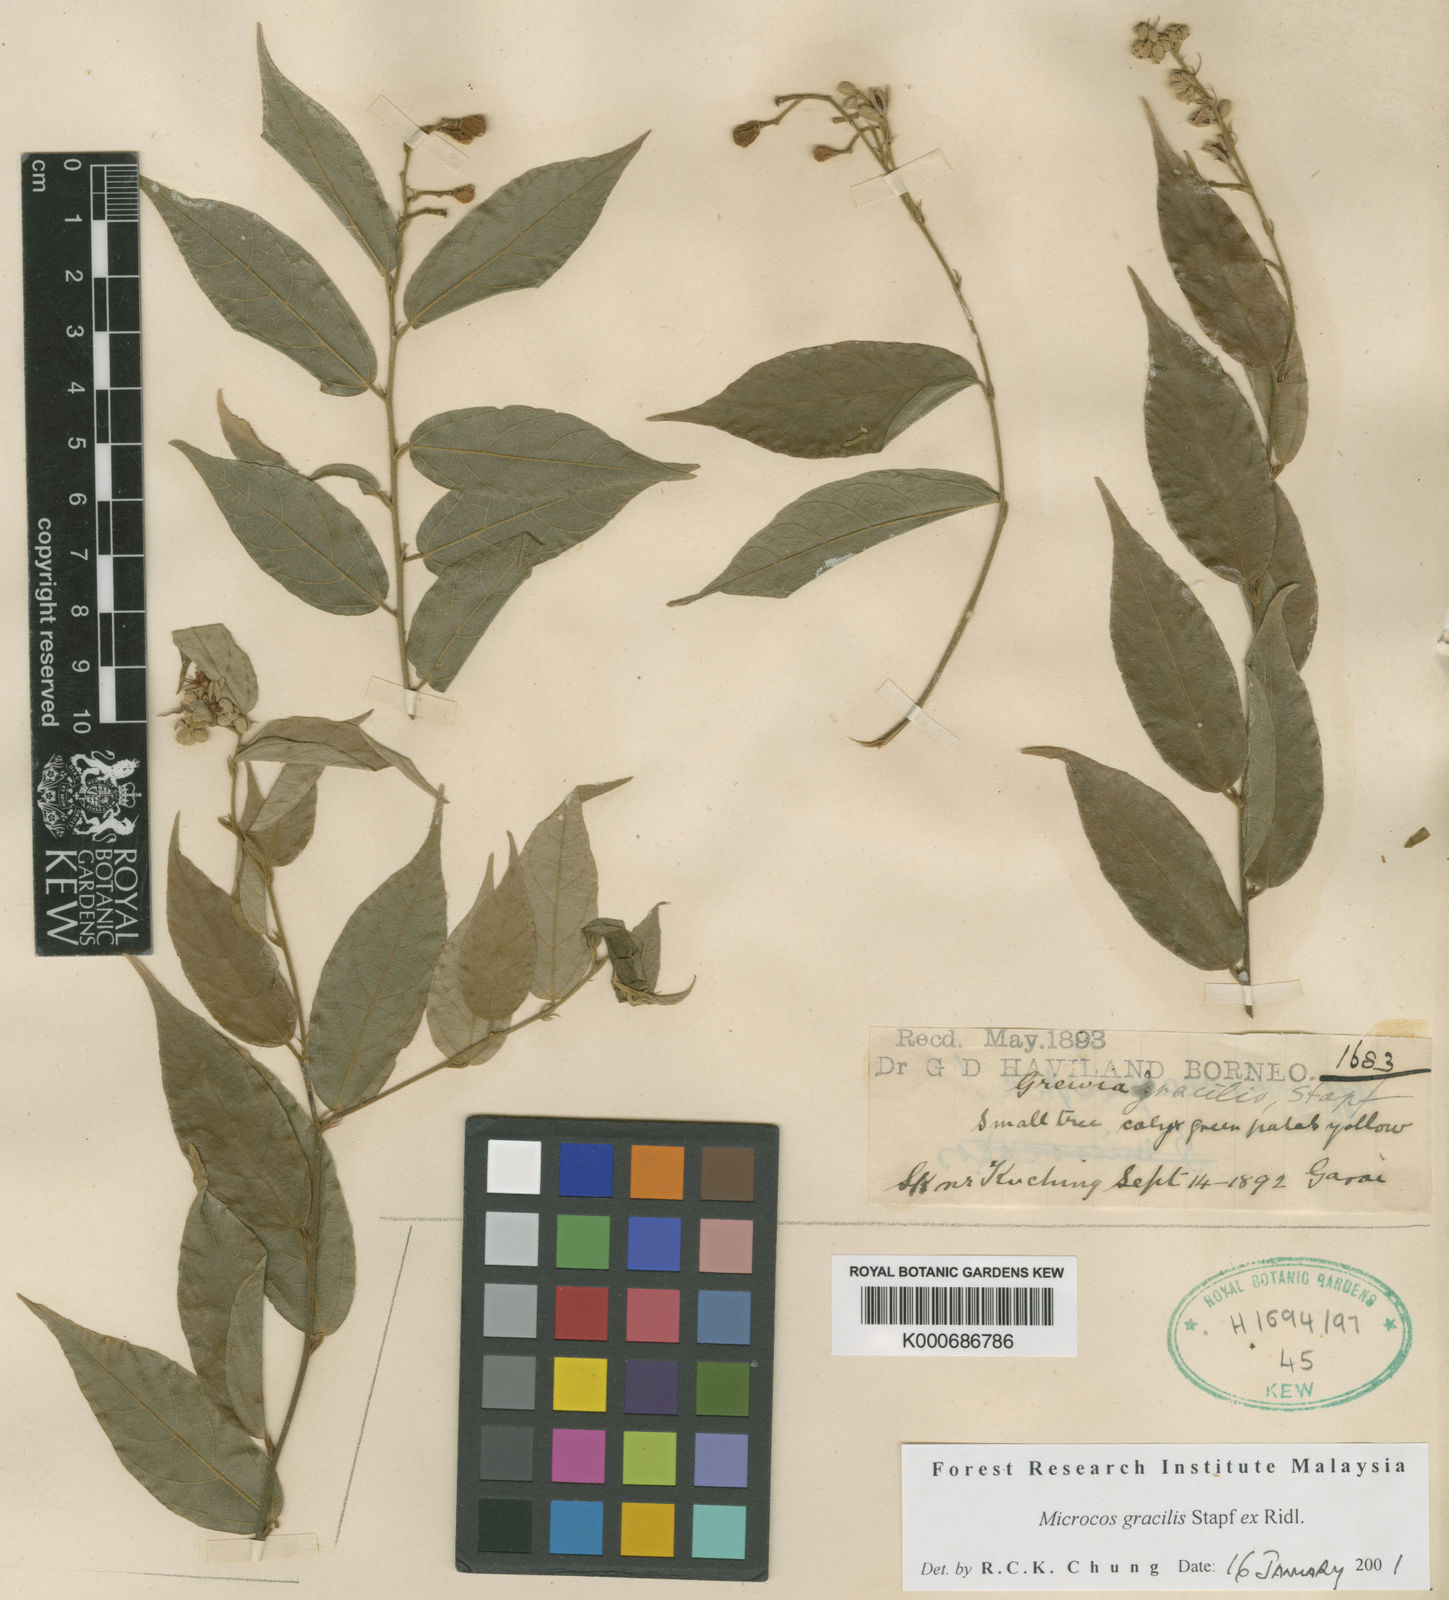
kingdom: Plantae
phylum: Tracheophyta
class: Magnoliopsida
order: Malvales
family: Malvaceae
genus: Microcos
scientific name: Microcos gracilis
